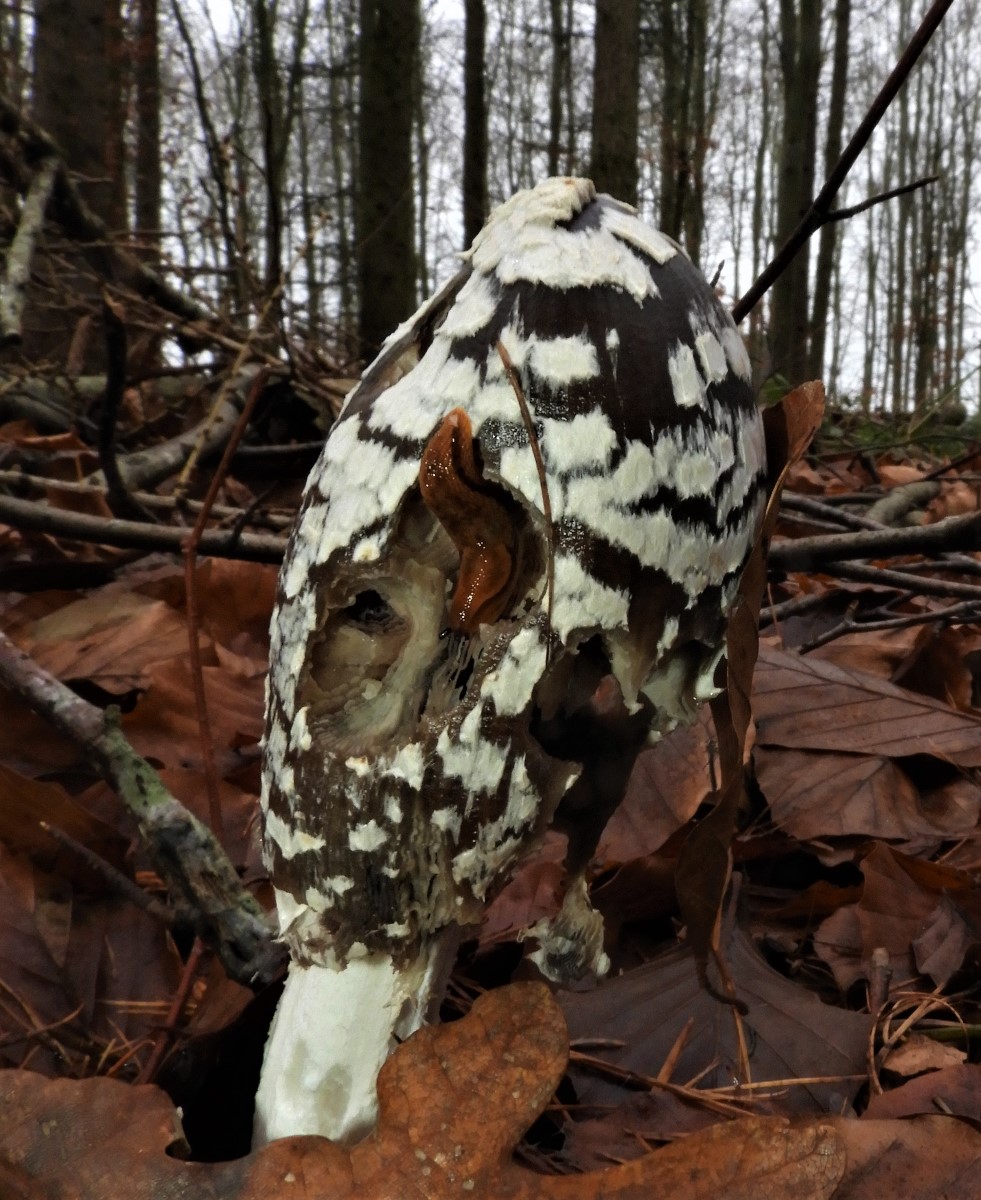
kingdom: Fungi
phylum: Basidiomycota
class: Agaricomycetes
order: Agaricales
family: Psathyrellaceae
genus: Coprinopsis
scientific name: Coprinopsis picacea
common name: skade-blækhat
